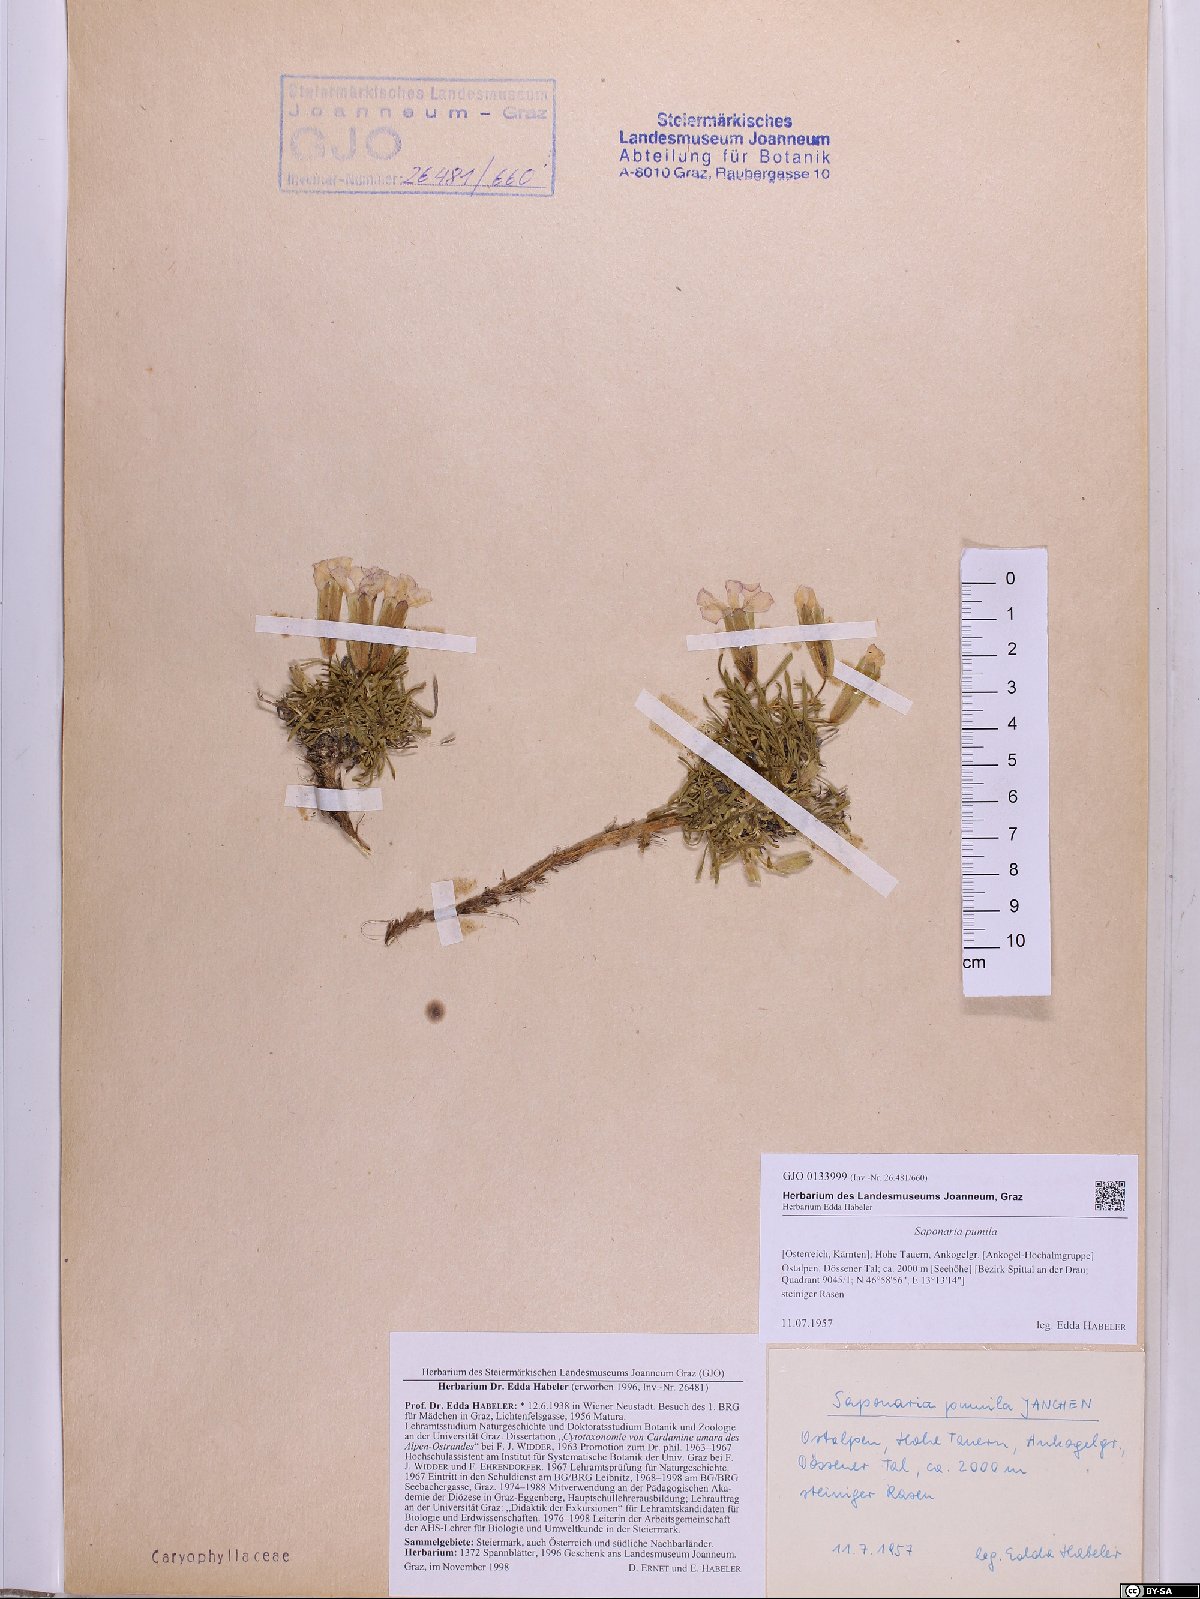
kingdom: Plantae
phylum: Tracheophyta
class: Magnoliopsida
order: Caryophyllales
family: Caryophyllaceae
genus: Saponaria
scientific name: Saponaria pumila
